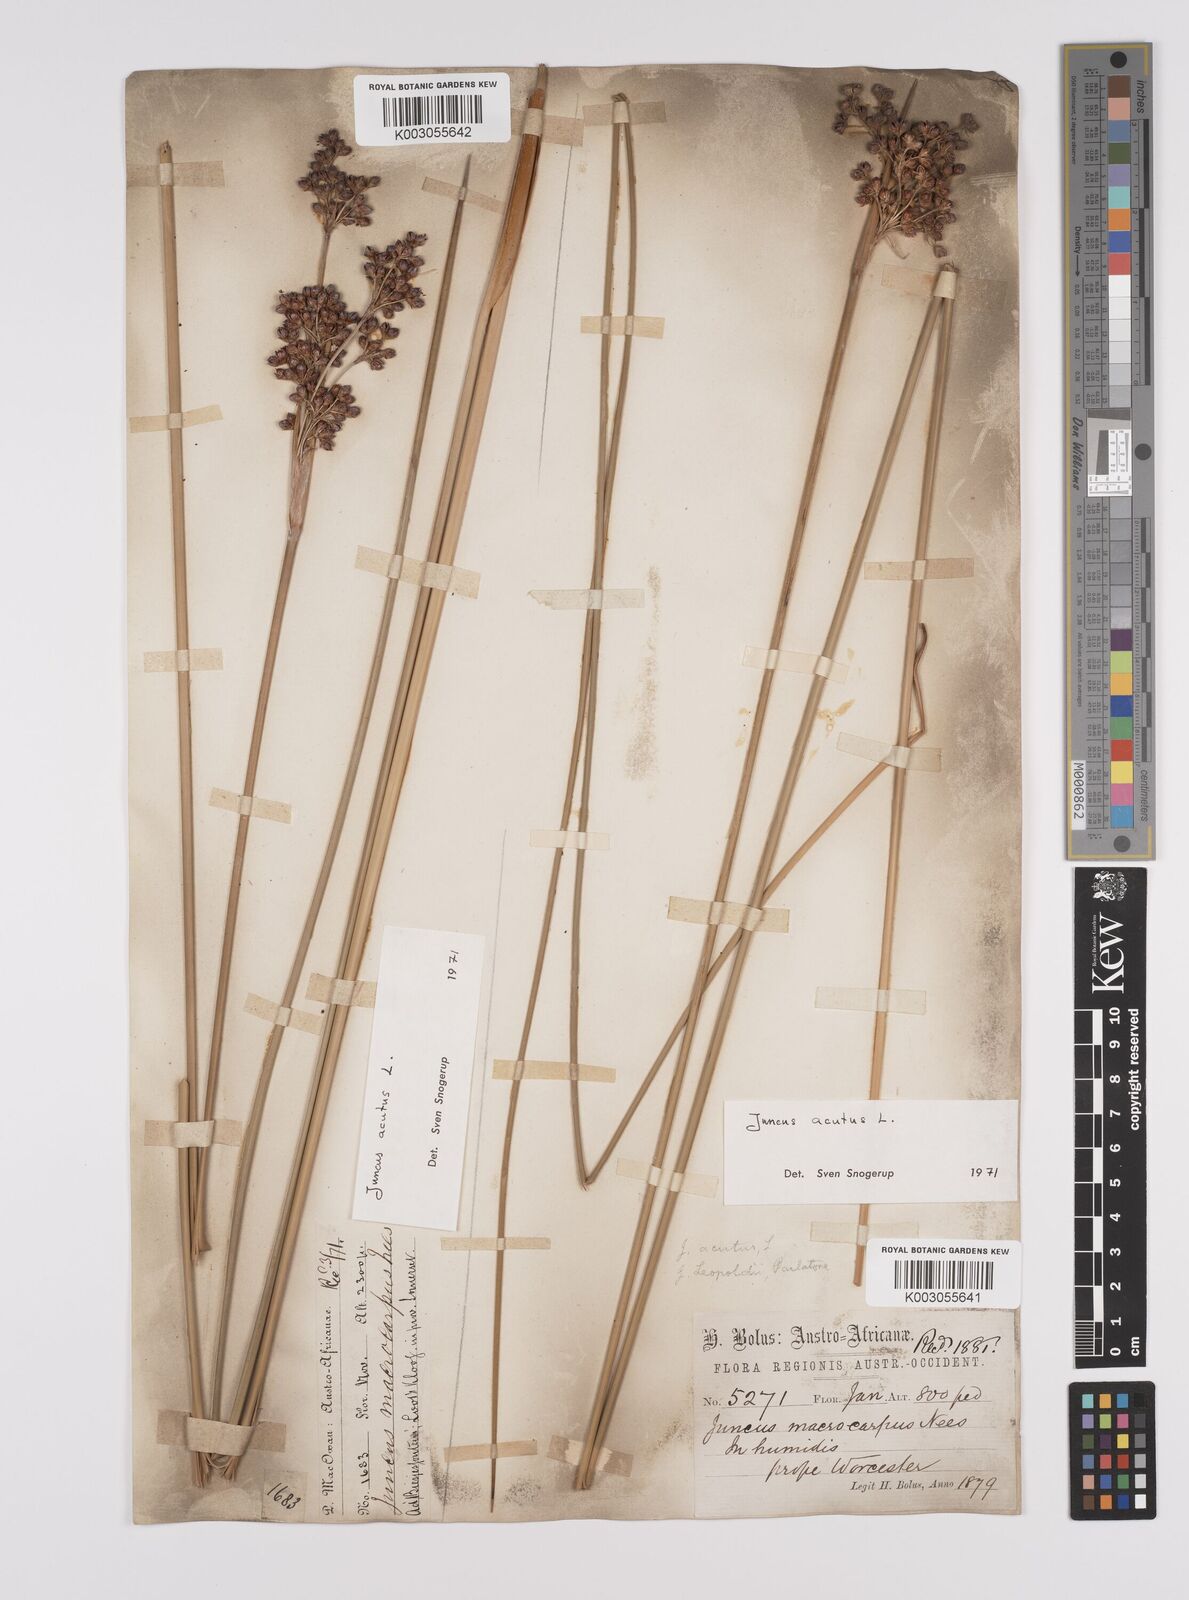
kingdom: Plantae
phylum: Tracheophyta
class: Liliopsida
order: Poales
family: Juncaceae
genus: Juncus
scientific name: Juncus acutus
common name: Sharp rush
